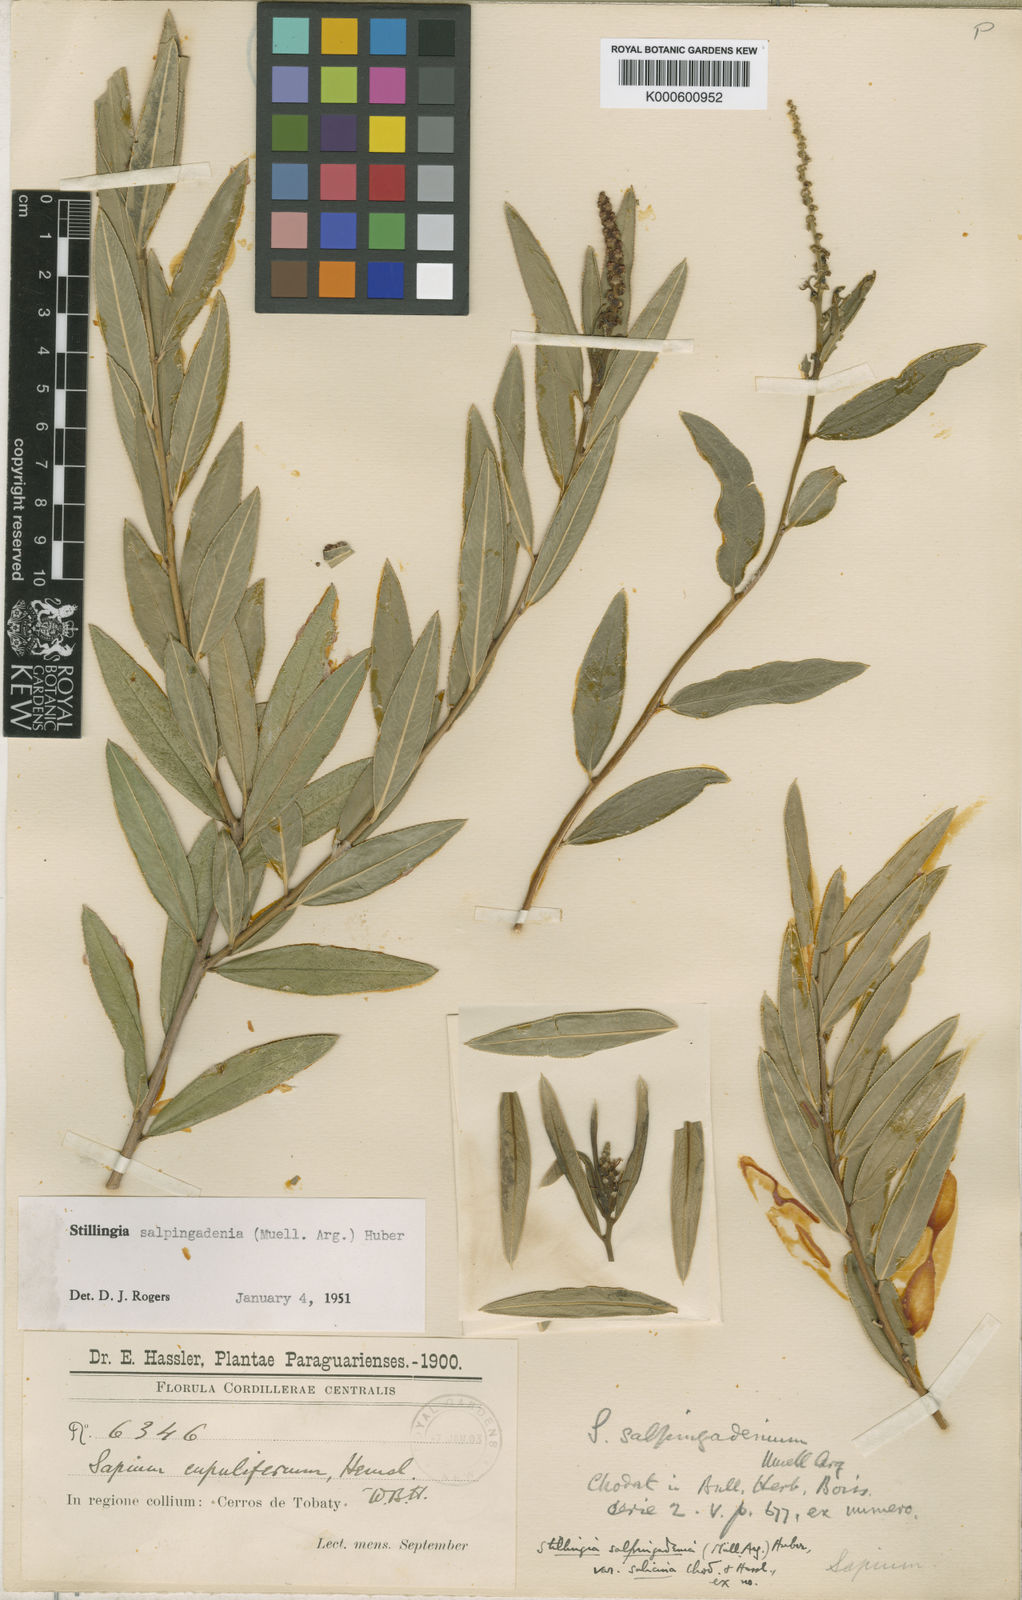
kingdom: Plantae
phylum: Tracheophyta
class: Magnoliopsida
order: Malpighiales
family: Euphorbiaceae
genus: Stillingia
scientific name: Stillingia
